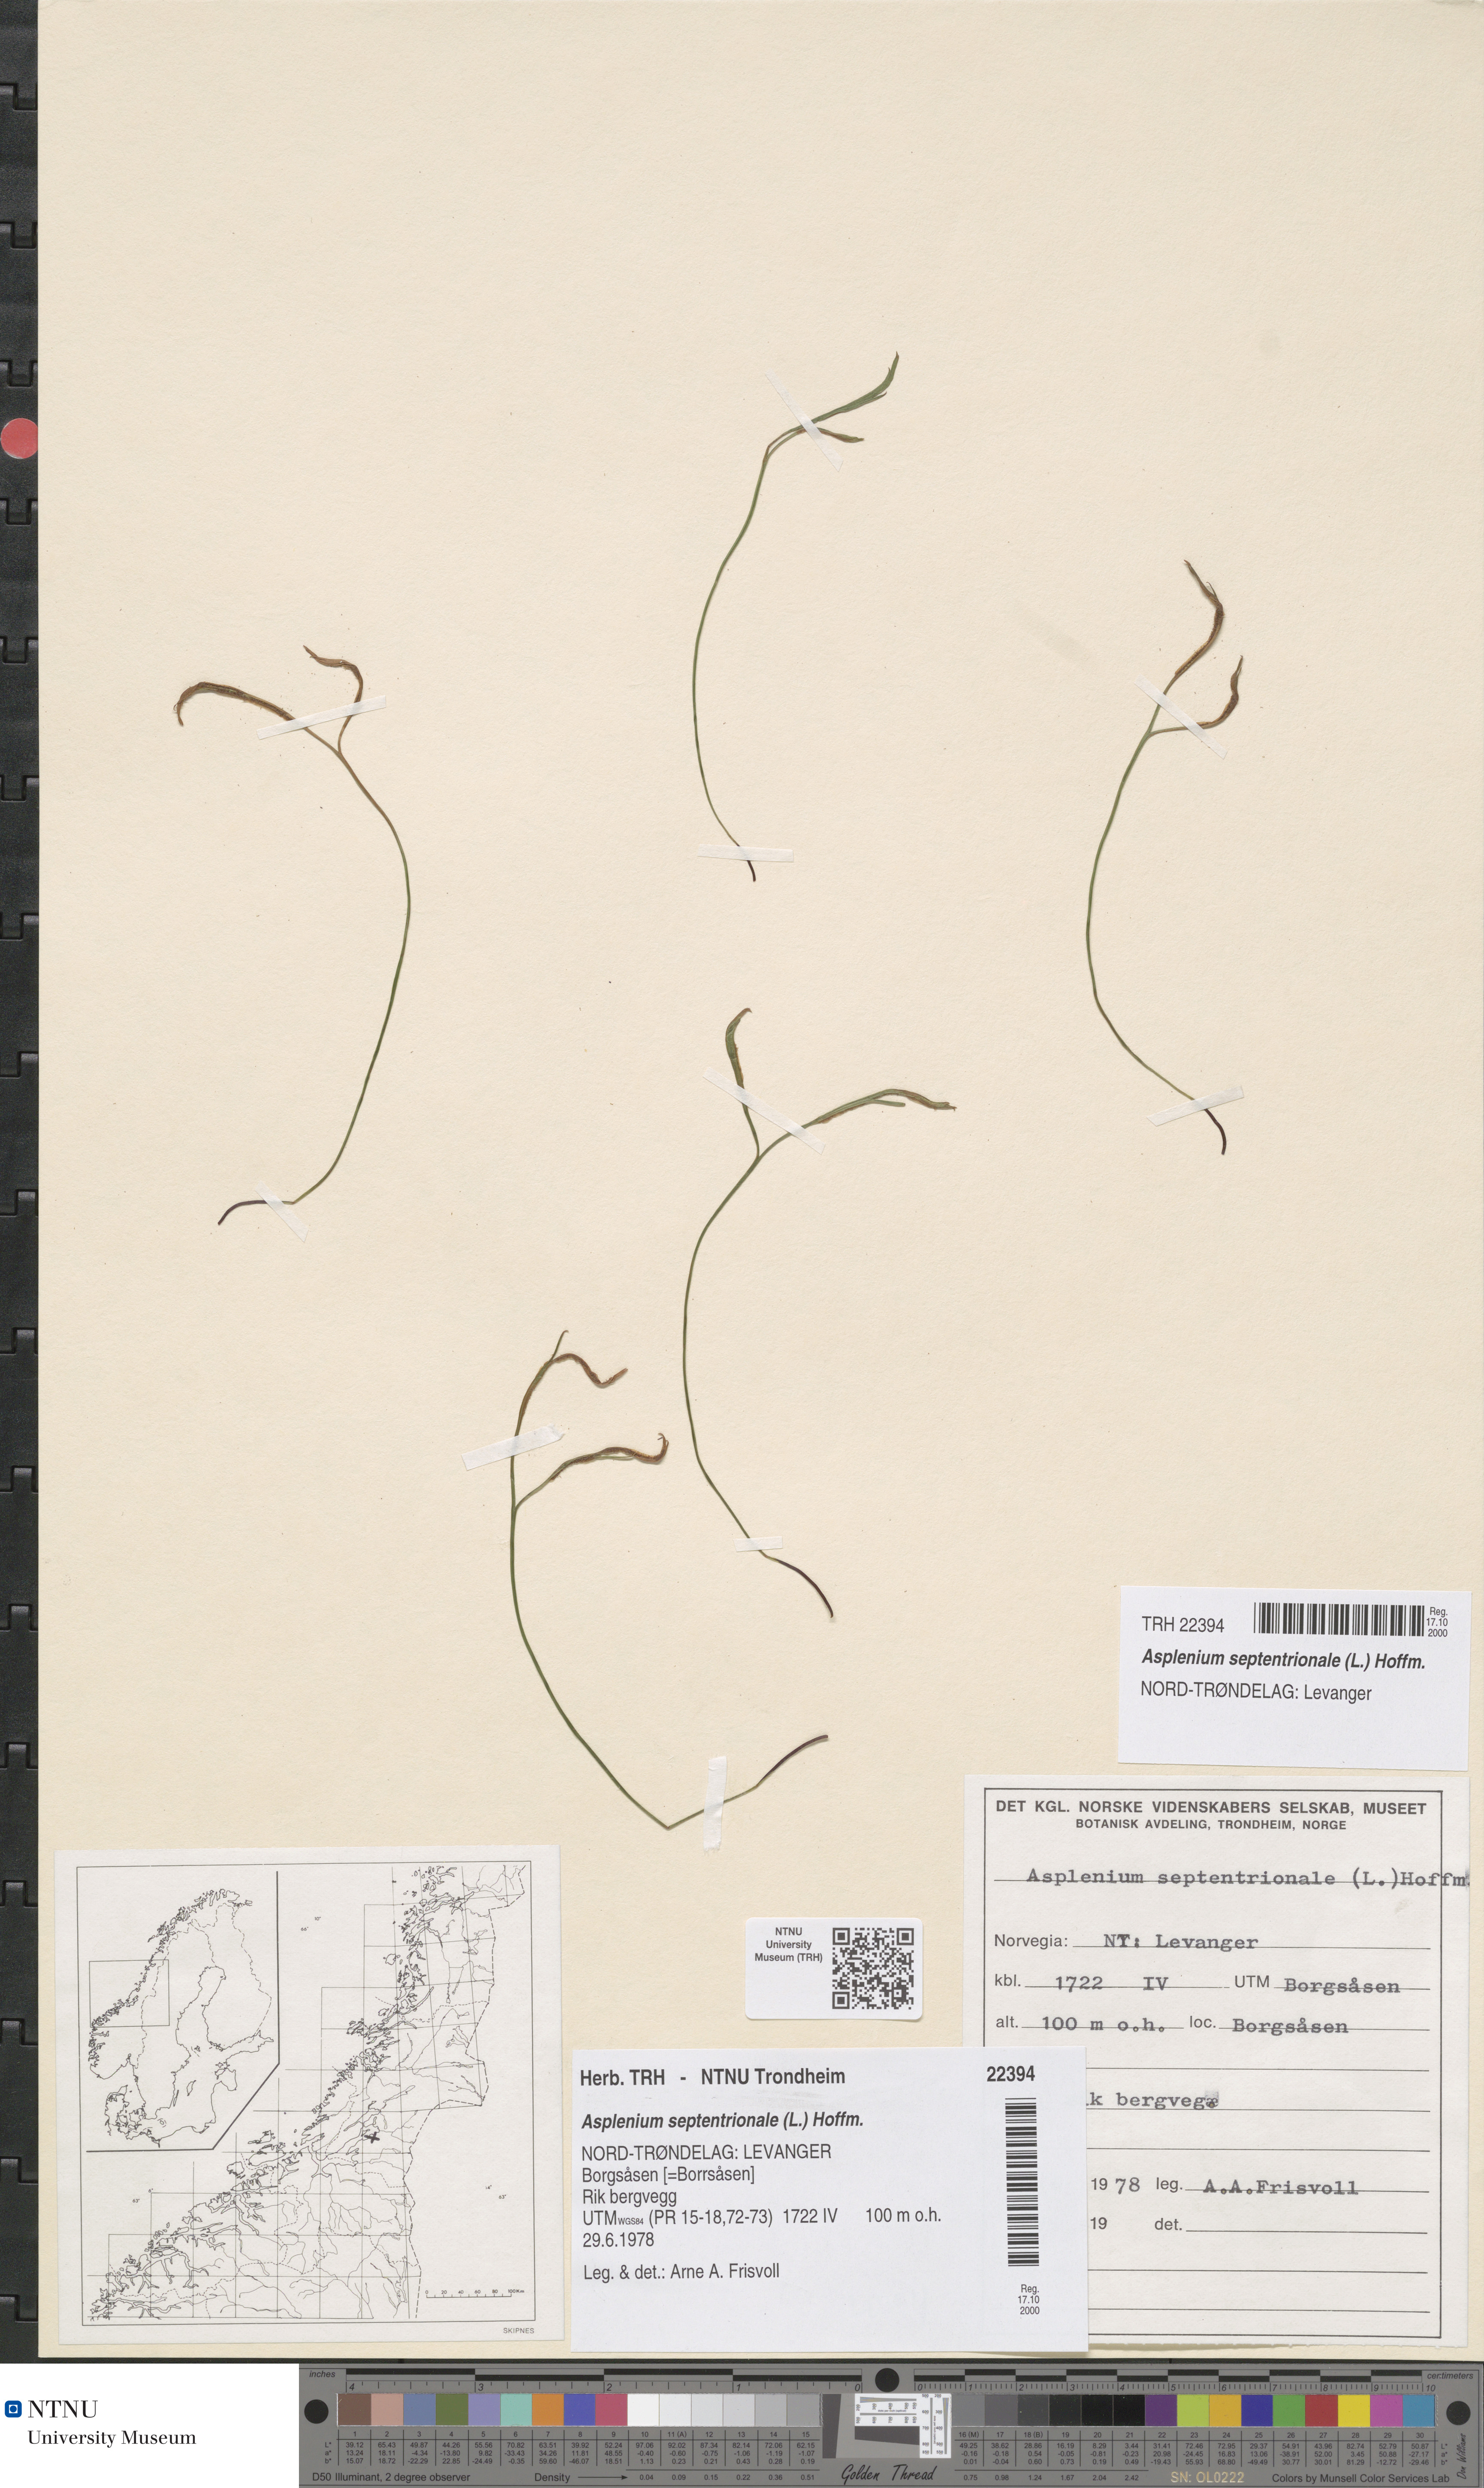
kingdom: Plantae
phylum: Tracheophyta
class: Polypodiopsida
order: Polypodiales
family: Aspleniaceae
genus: Asplenium
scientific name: Asplenium septentrionale
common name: Forked spleenwort
